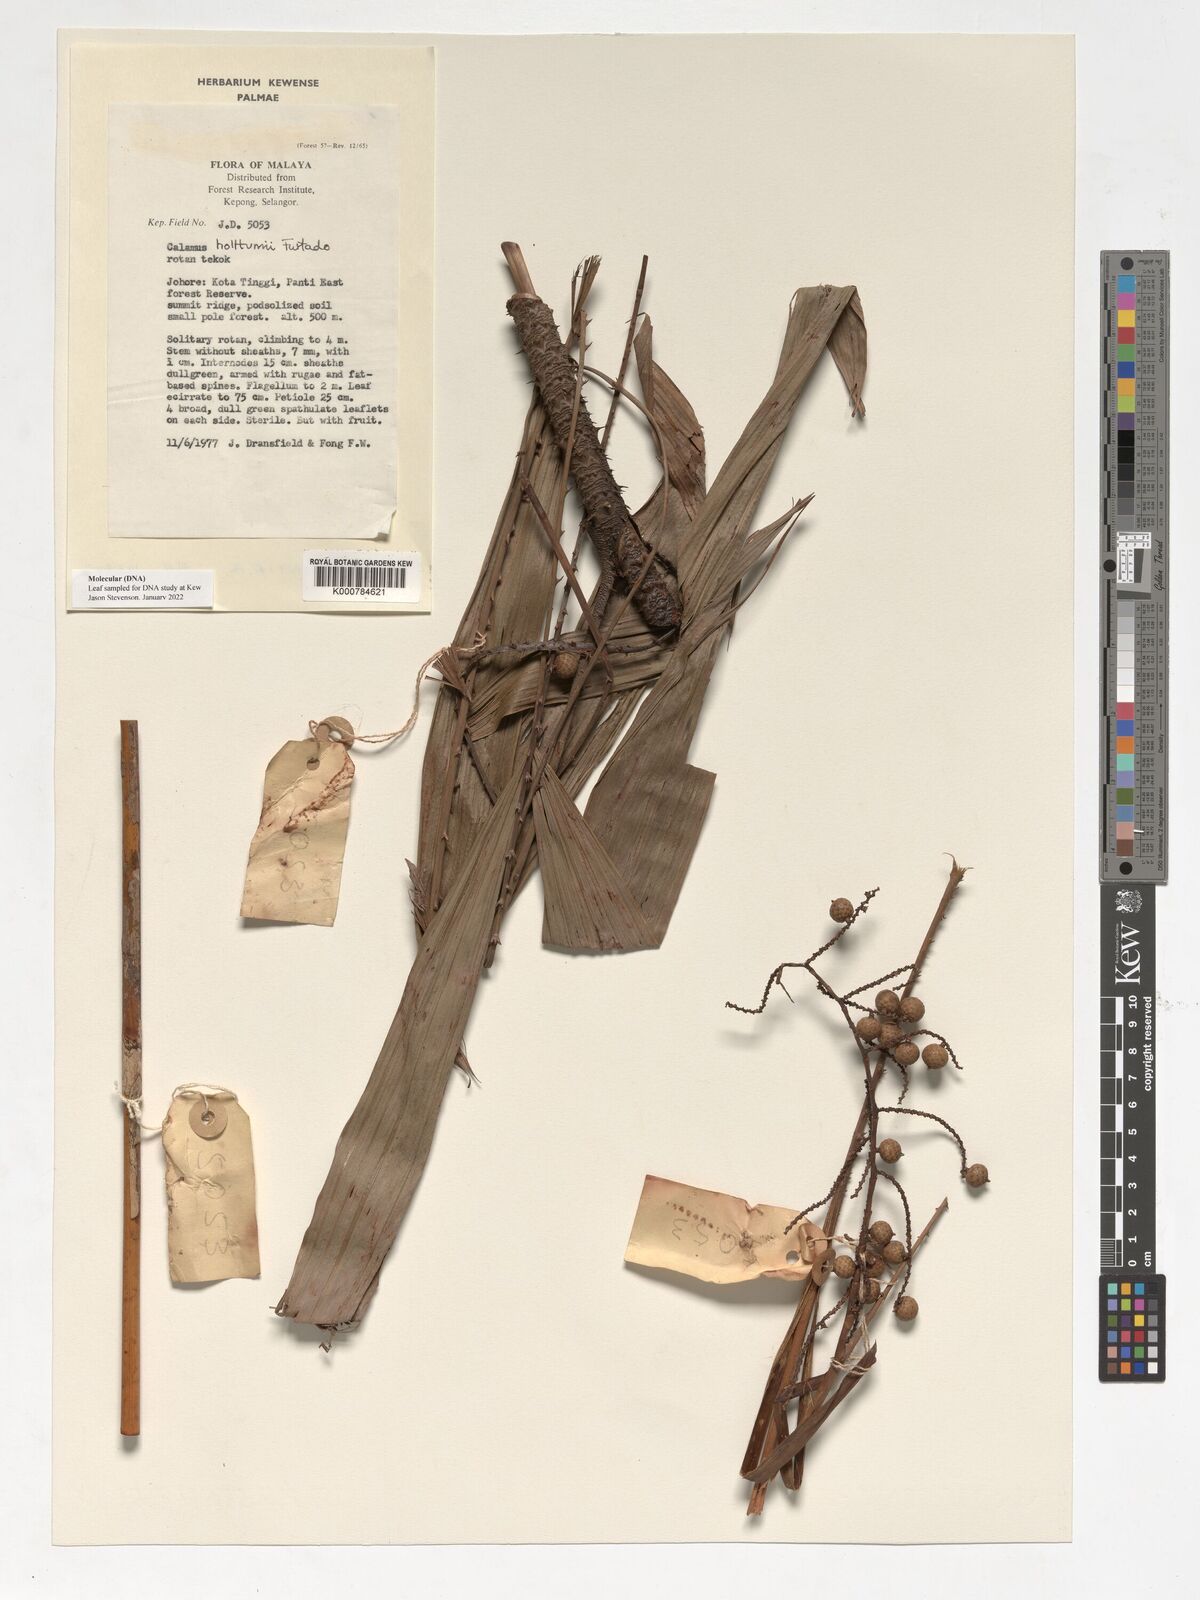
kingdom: Plantae
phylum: Tracheophyta
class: Liliopsida
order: Arecales
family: Arecaceae
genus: Calamus
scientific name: Calamus holttumii
